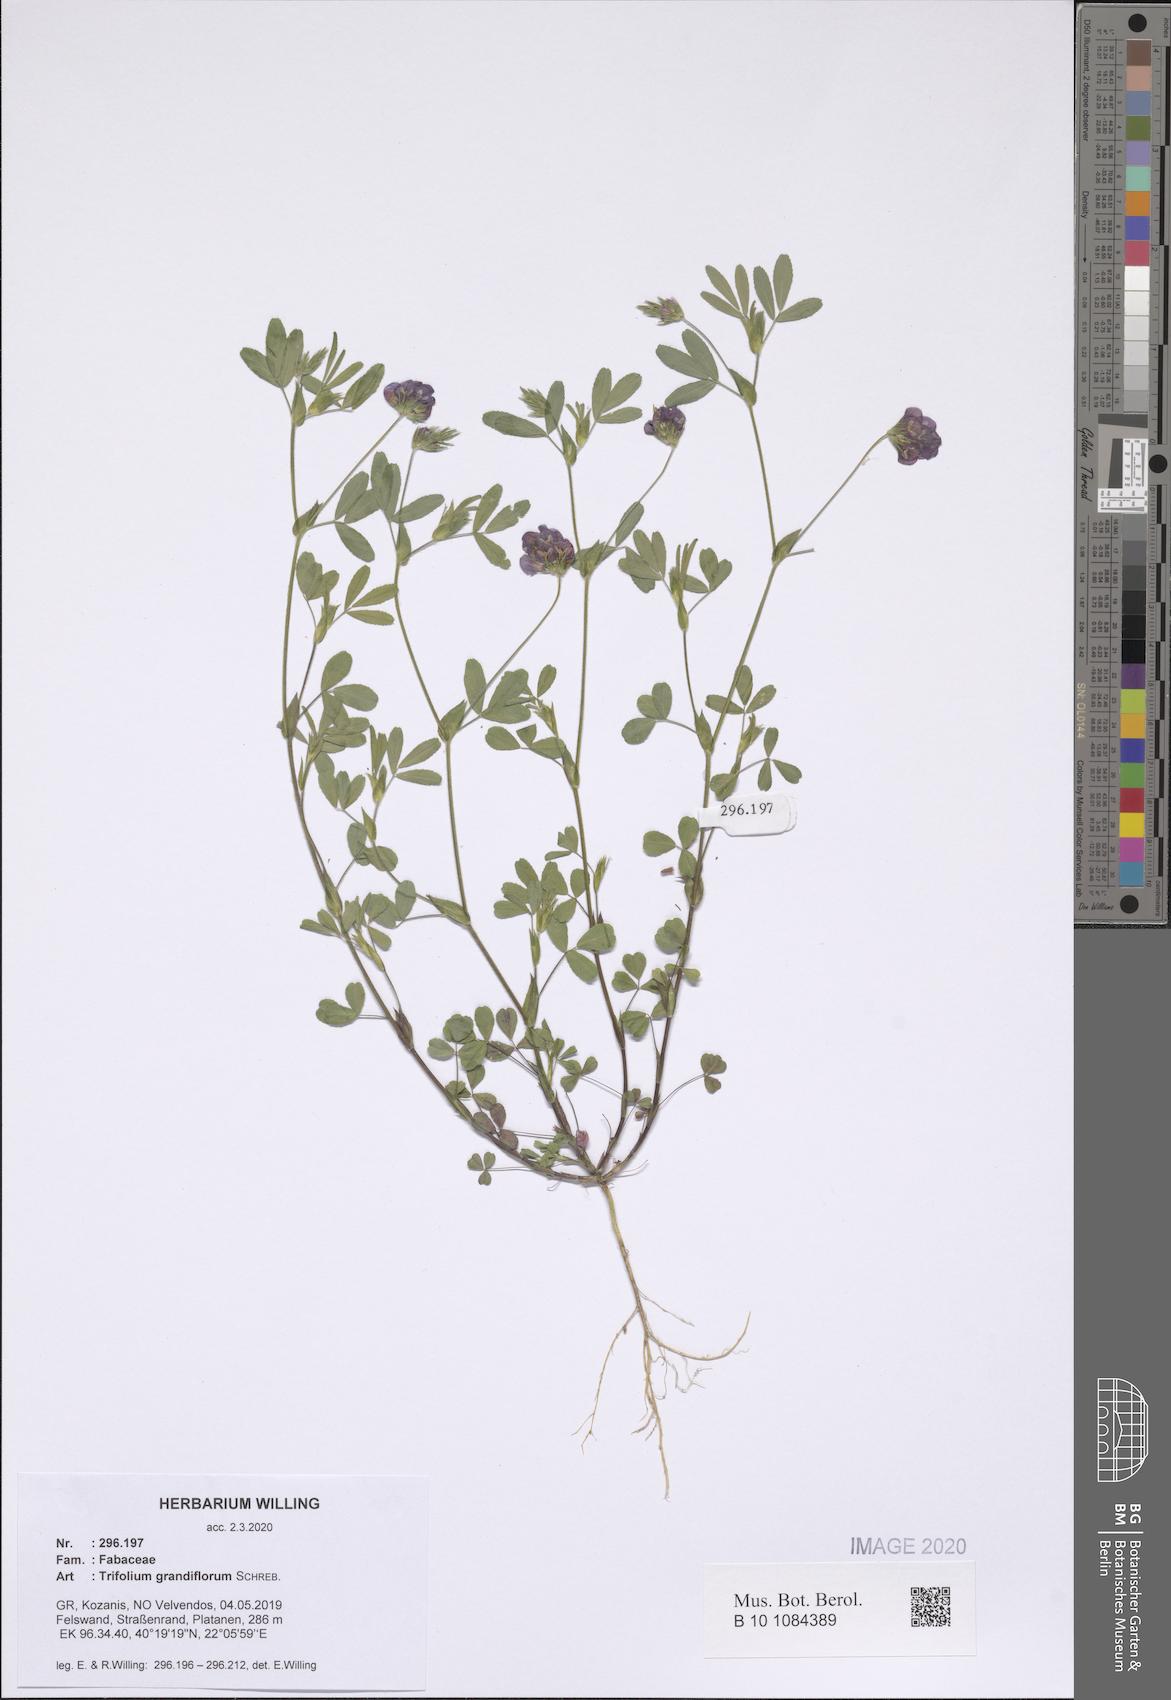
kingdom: Plantae
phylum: Tracheophyta
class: Magnoliopsida
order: Fabales
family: Fabaceae
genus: Trifolium
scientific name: Trifolium grandiflorum
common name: Large-flower hop clover
